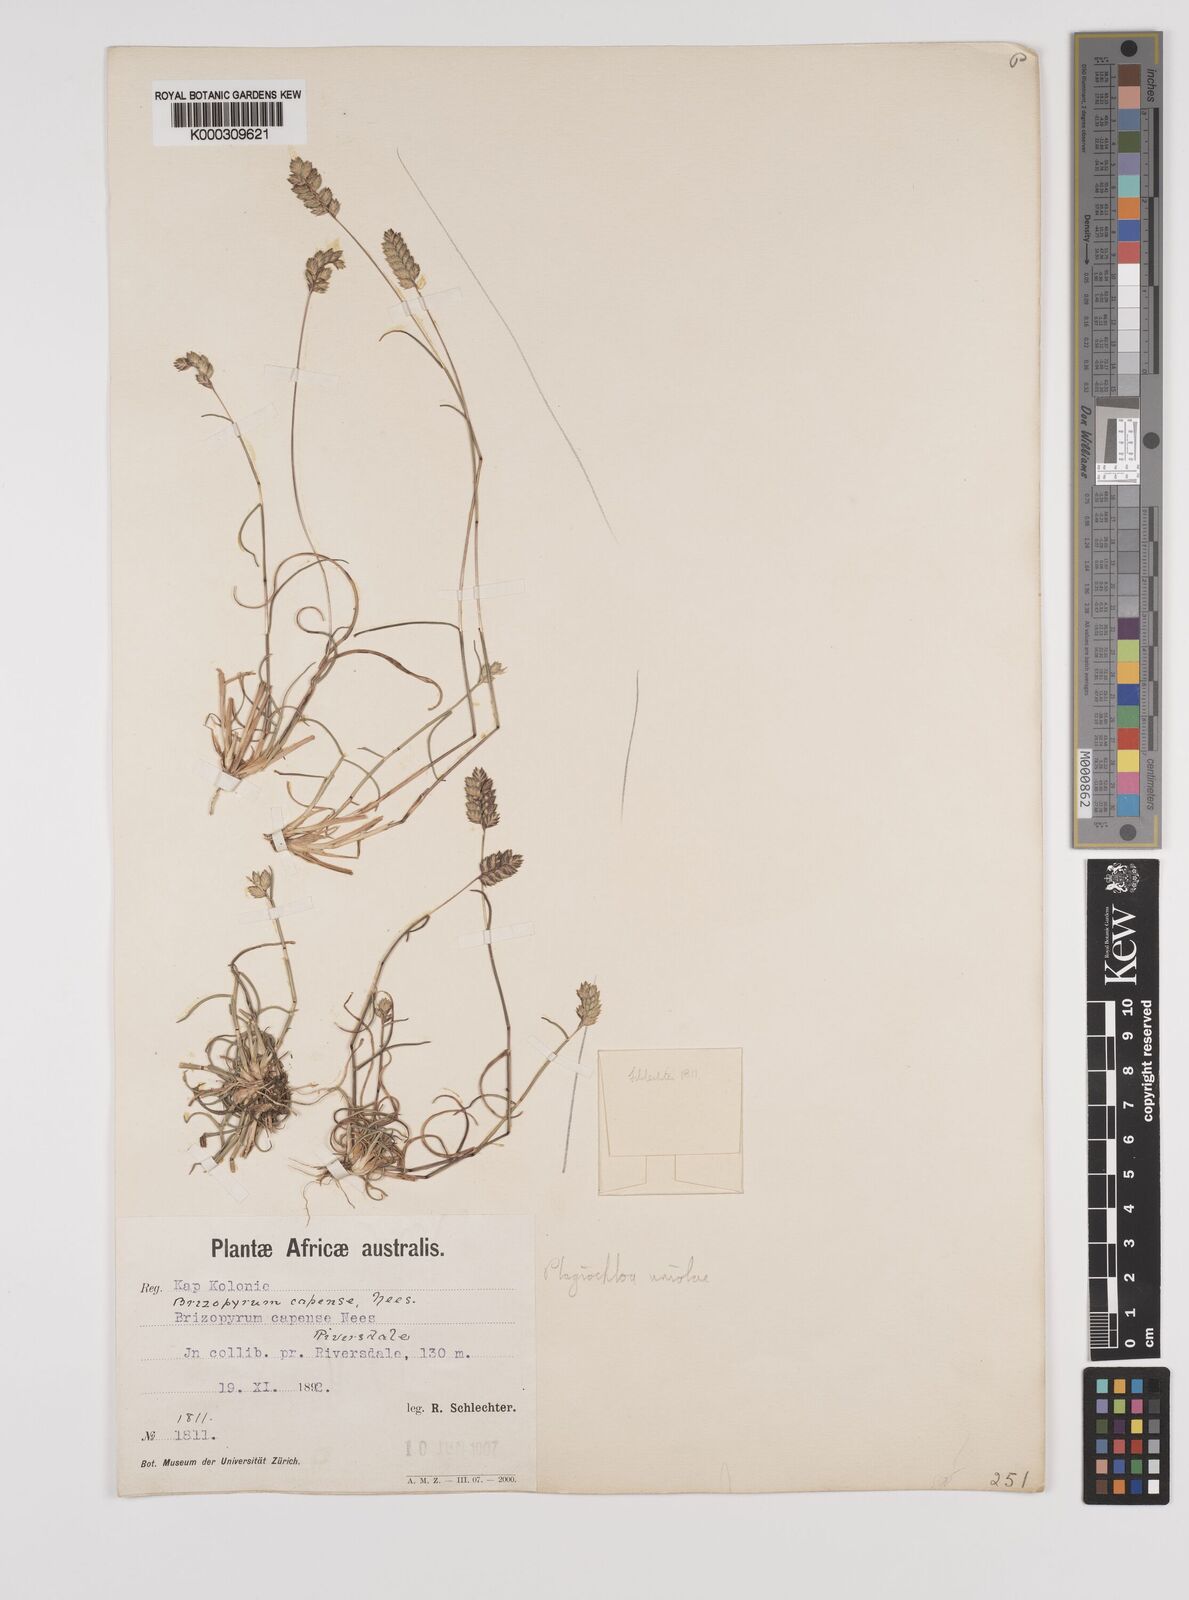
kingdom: Plantae
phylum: Tracheophyta
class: Liliopsida
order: Poales
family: Poaceae
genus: Tribolium
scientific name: Tribolium uniolae
